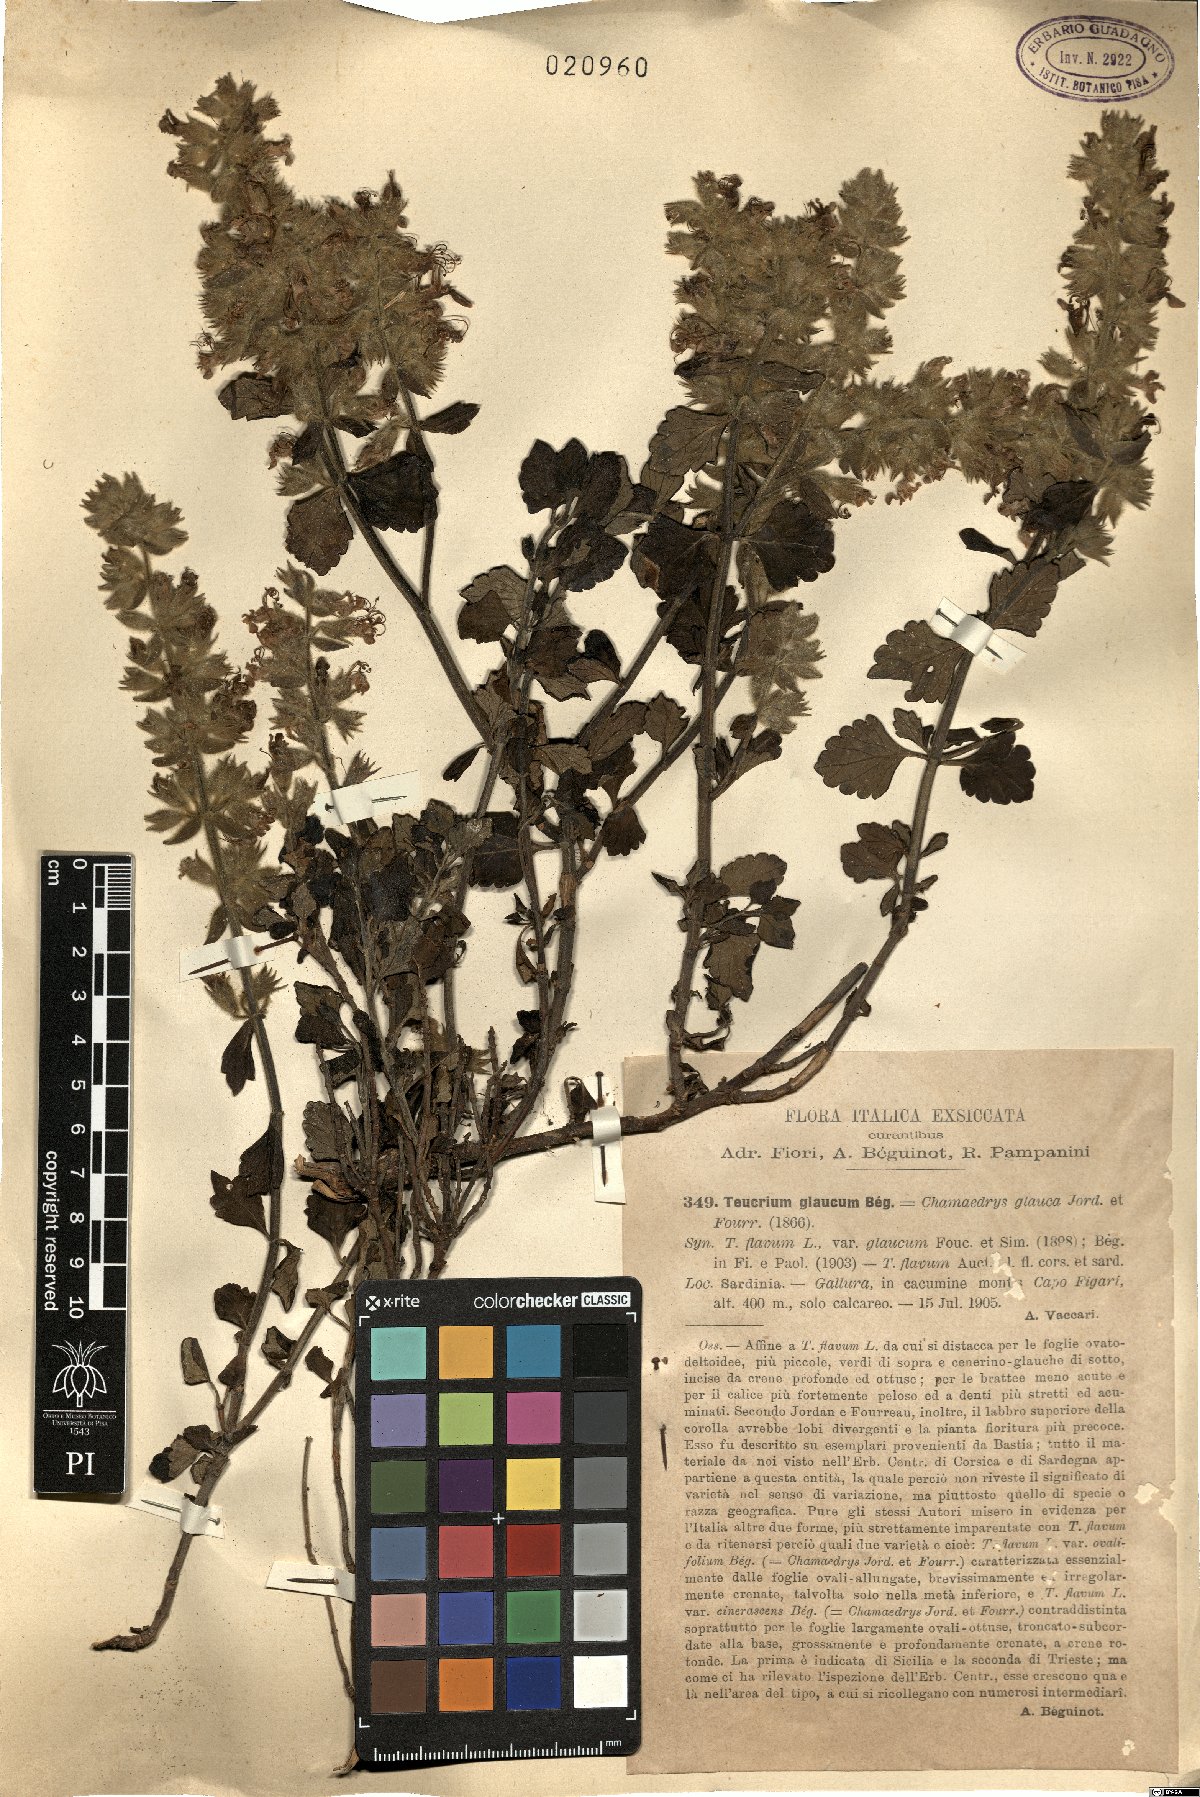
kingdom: Plantae
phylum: Tracheophyta
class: Magnoliopsida
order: Lamiales
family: Lamiaceae
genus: Teucrium
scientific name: Teucrium flavum
